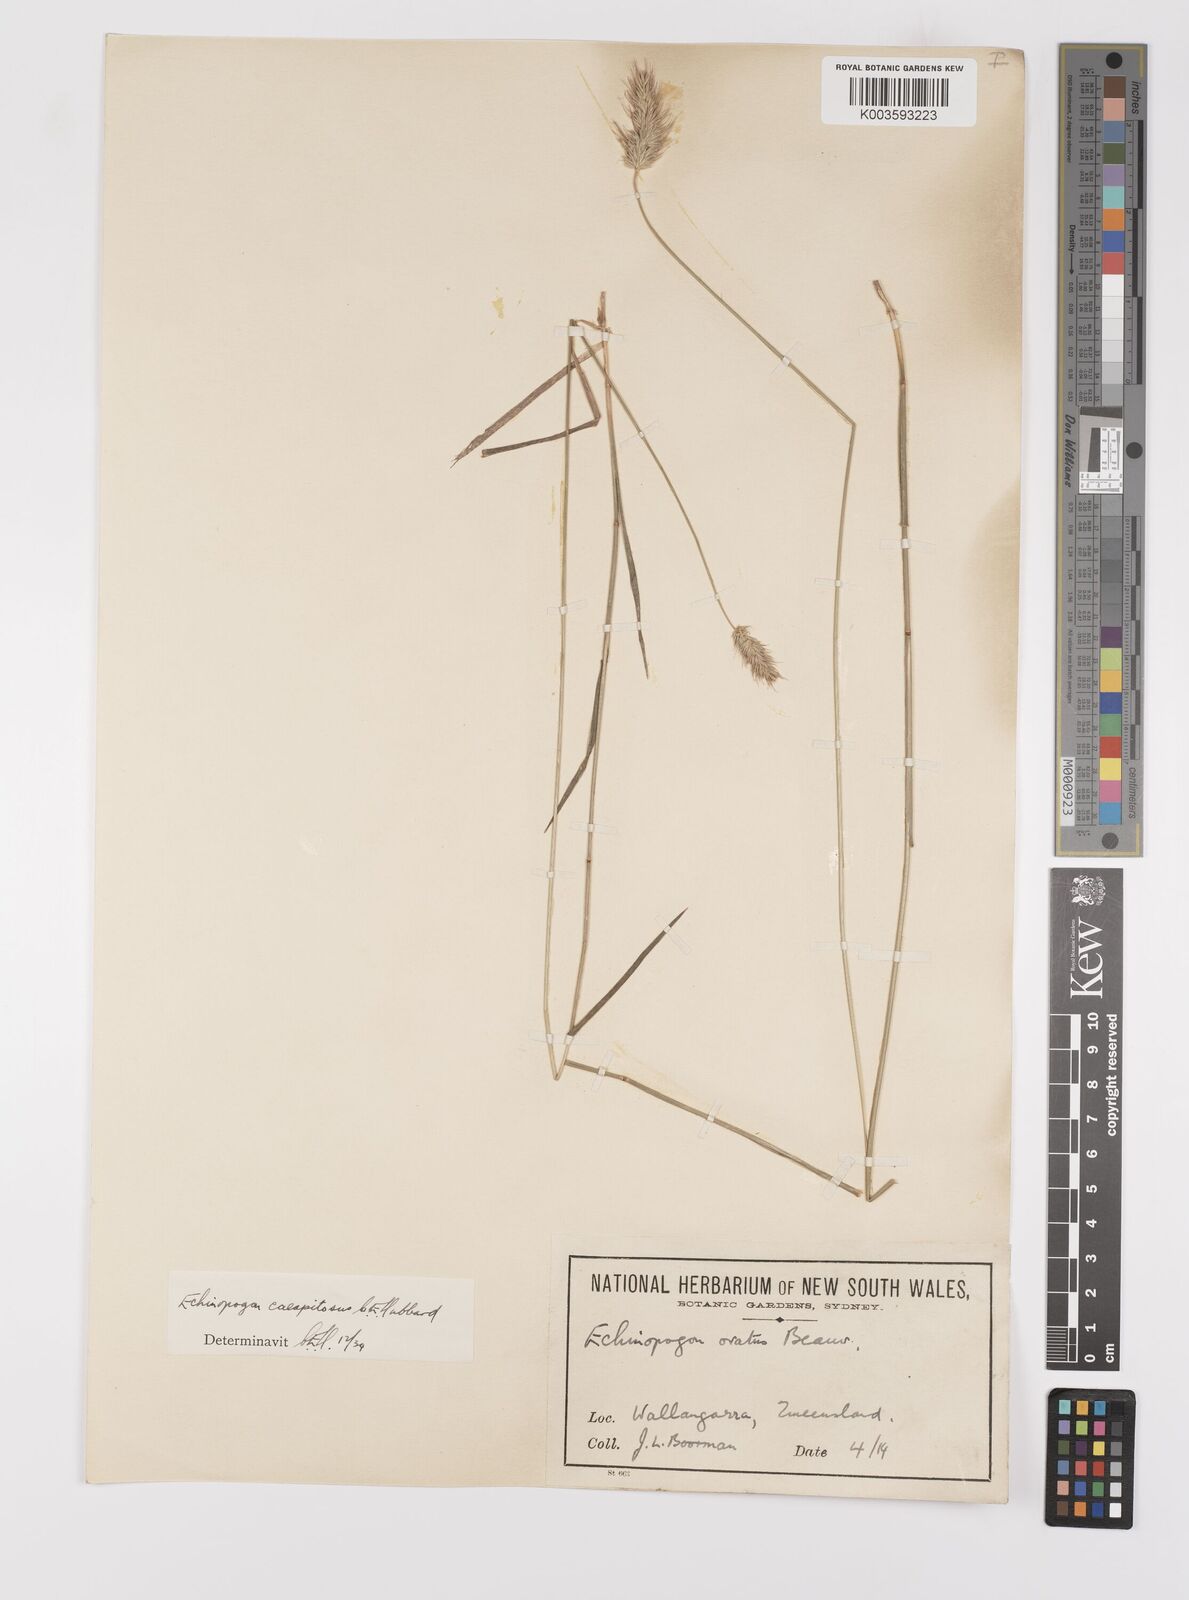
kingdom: Plantae
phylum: Tracheophyta
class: Liliopsida
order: Poales
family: Poaceae
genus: Echinopogon
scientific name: Echinopogon caespitosus
